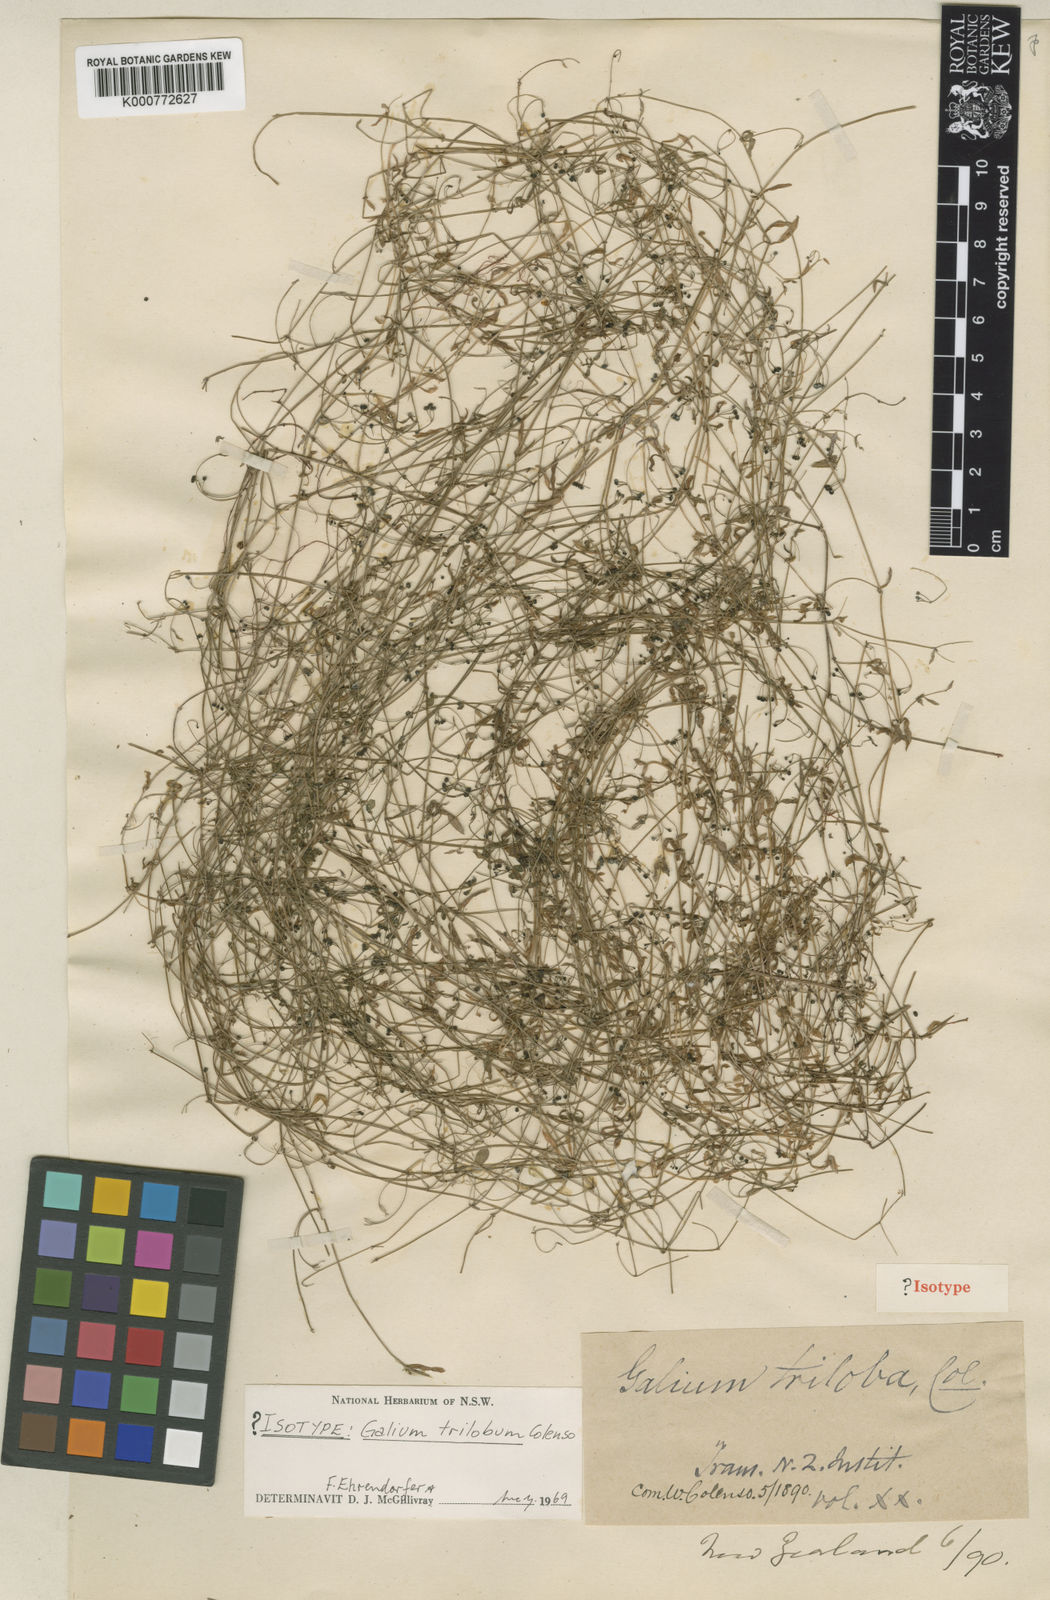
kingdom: Plantae
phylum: Tracheophyta
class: Magnoliopsida
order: Gentianales
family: Rubiaceae
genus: Galium
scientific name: Galium trilobum
